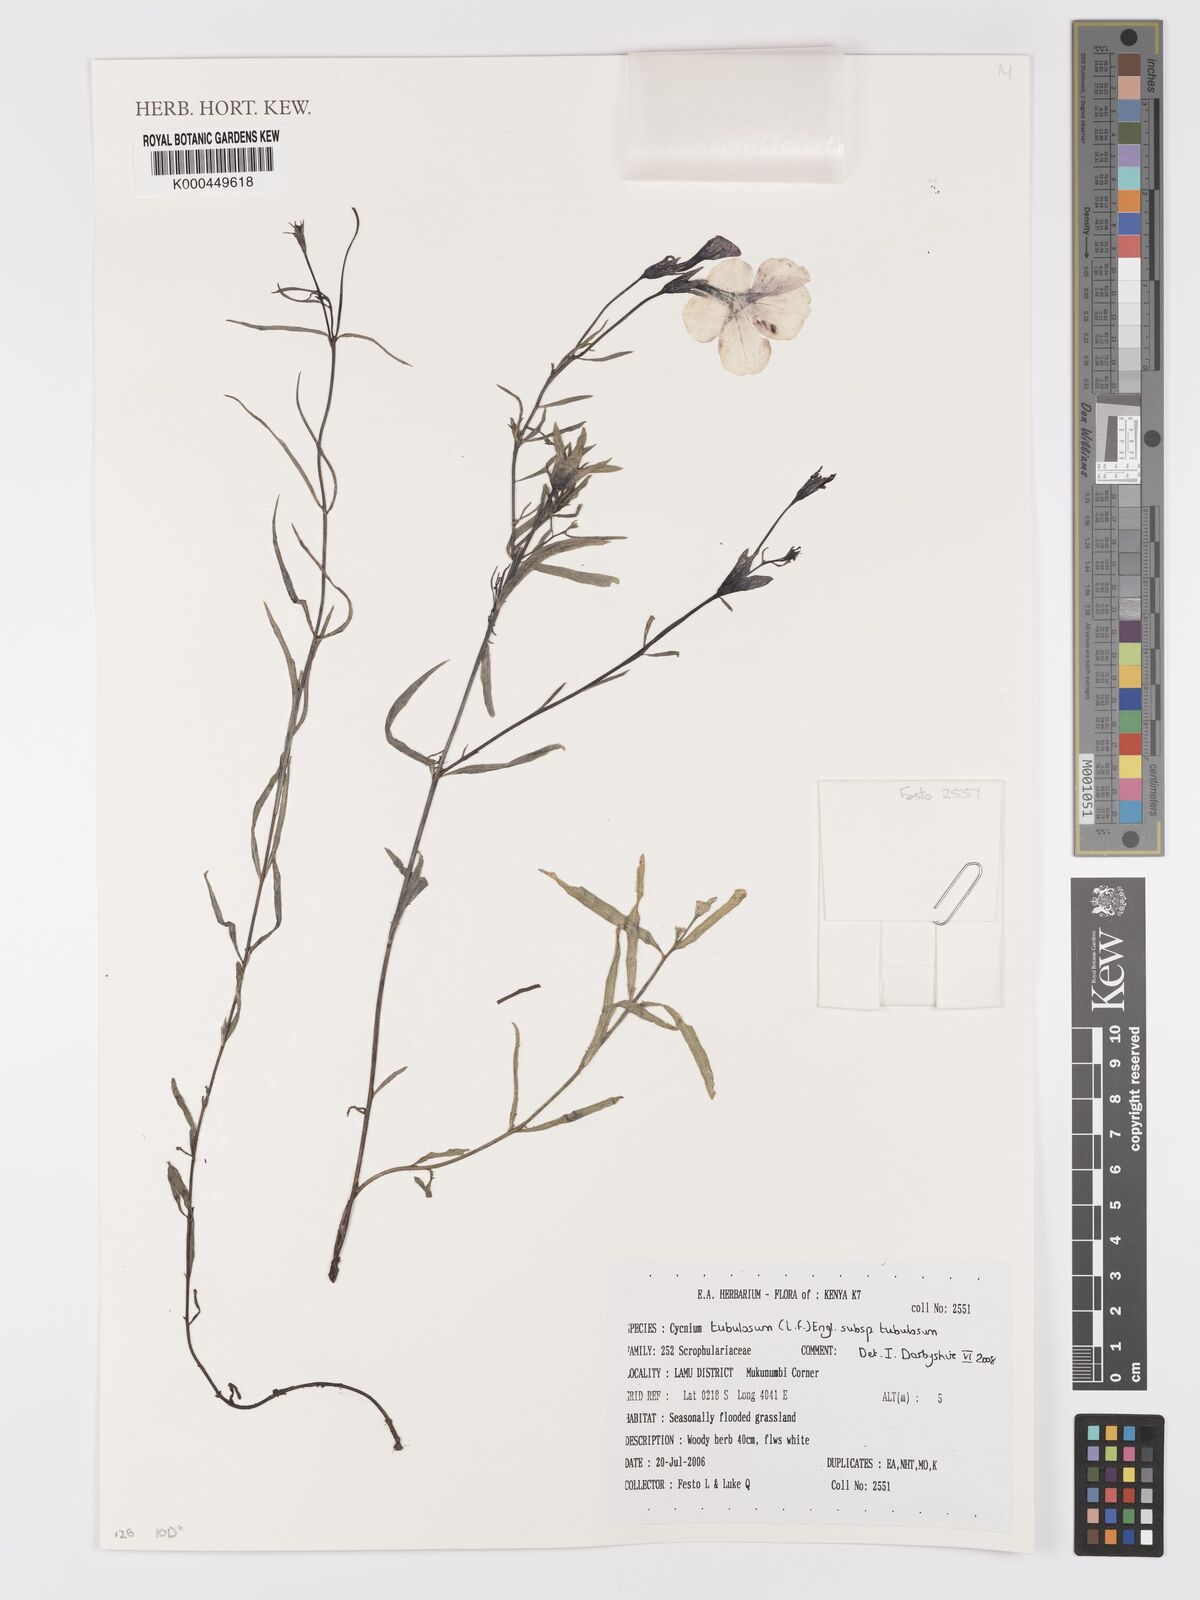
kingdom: Plantae
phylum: Tracheophyta
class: Magnoliopsida
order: Lamiales
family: Orobanchaceae
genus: Cycnium
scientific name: Cycnium tubulosum
